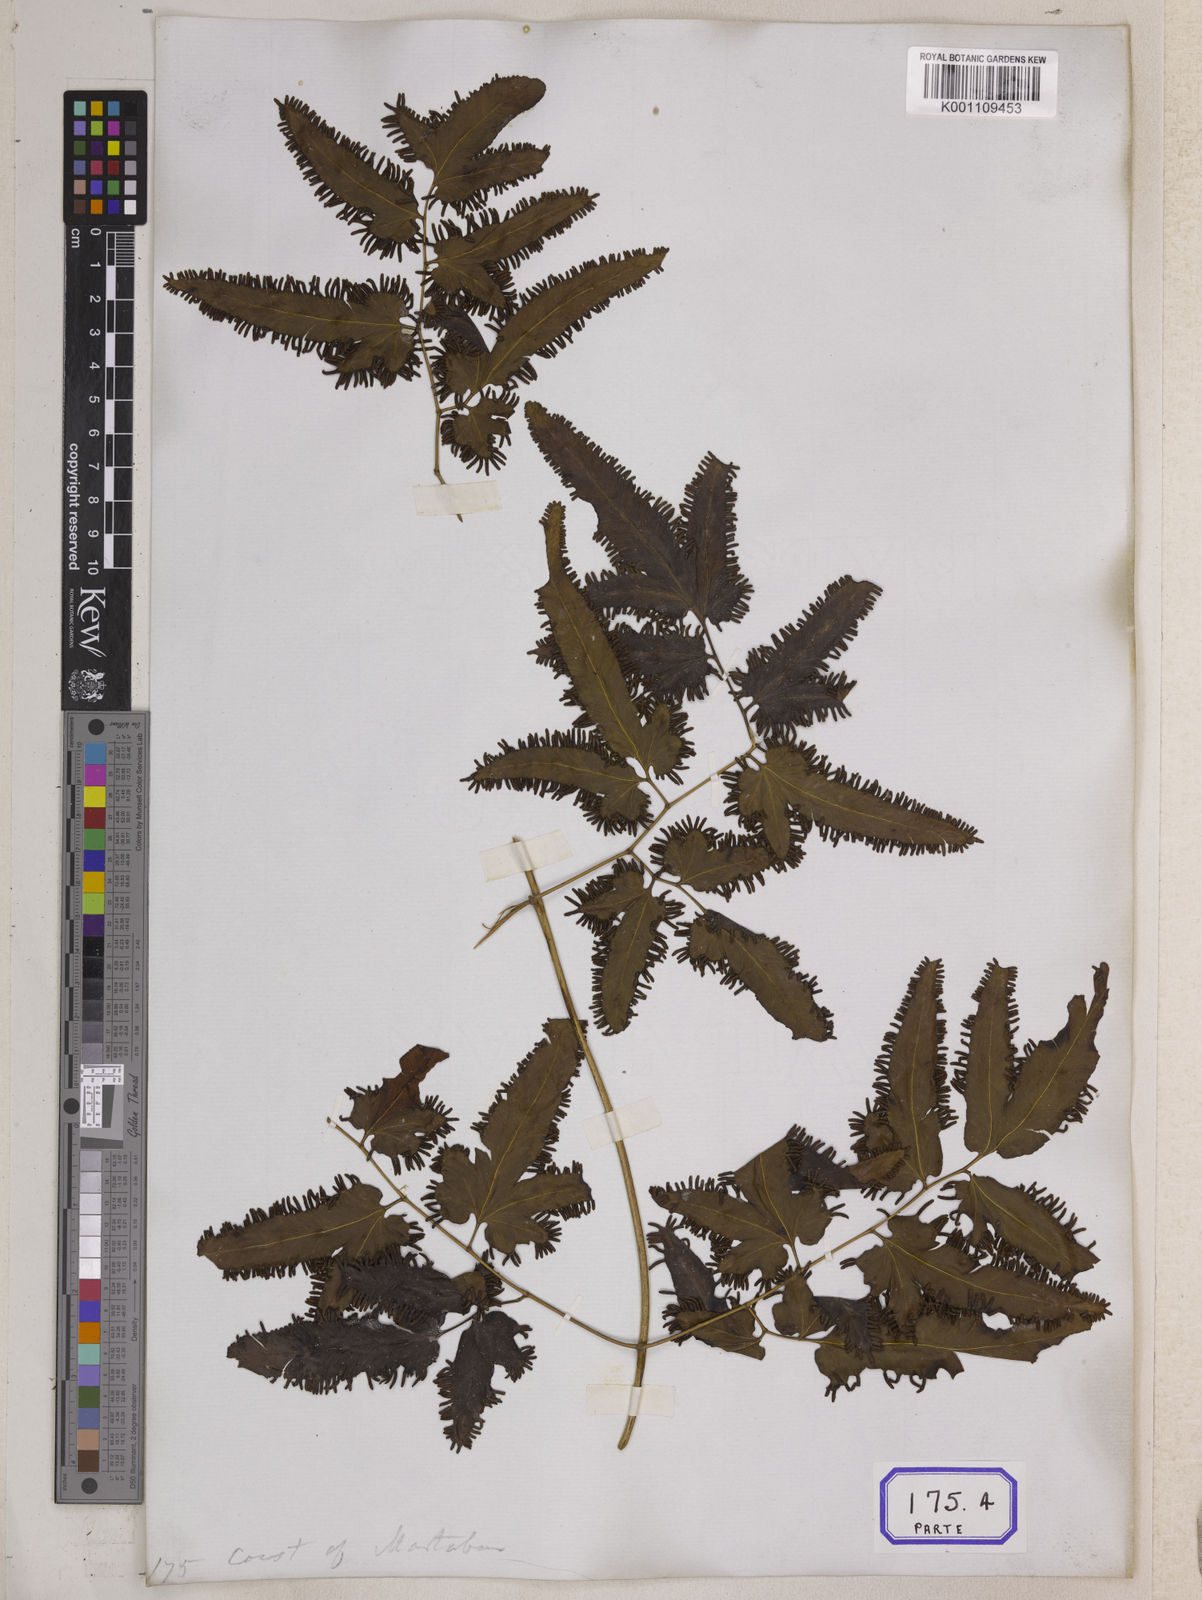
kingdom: Plantae
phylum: Tracheophyta
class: Polypodiopsida
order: Schizaeales
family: Lygodiaceae
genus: Lygodium
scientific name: Lygodium flexuosum
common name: Maidenhair creeper
